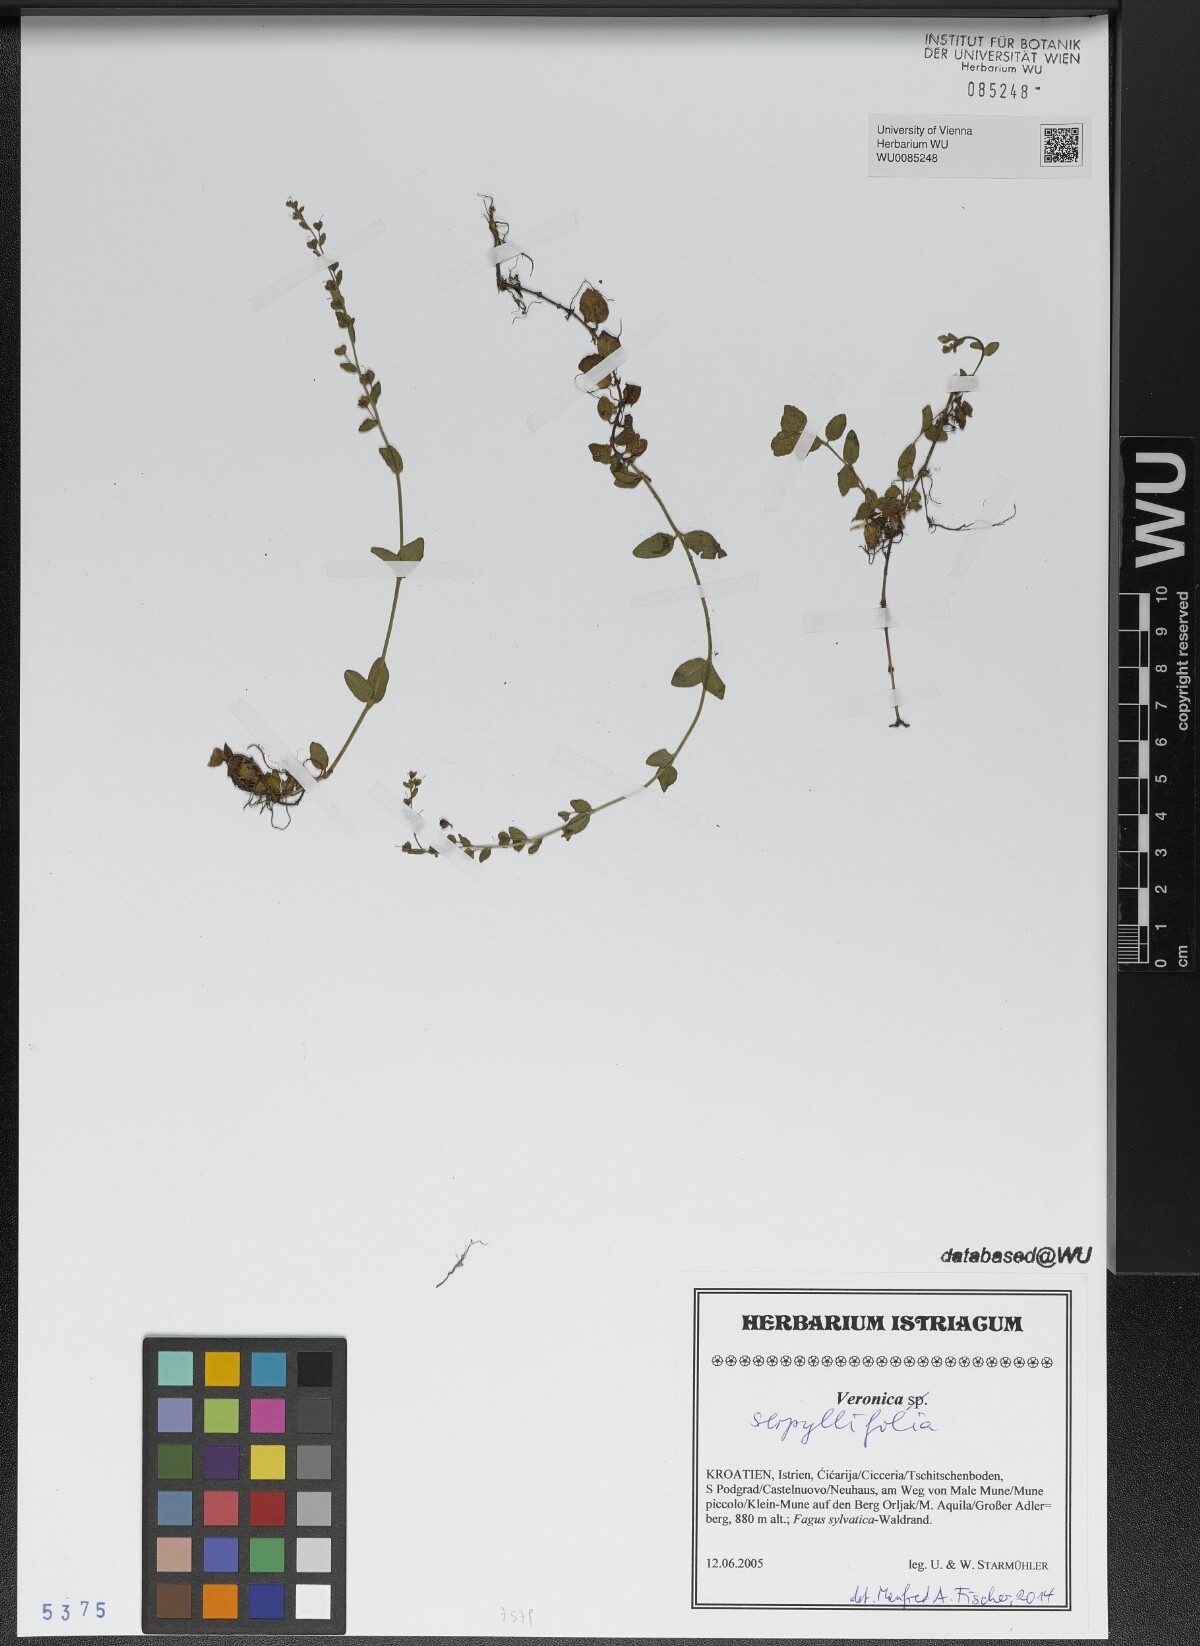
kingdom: Plantae
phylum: Tracheophyta
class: Magnoliopsida
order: Lamiales
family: Plantaginaceae
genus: Veronica
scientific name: Veronica serpyllifolia
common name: Thyme-leaved speedwell
